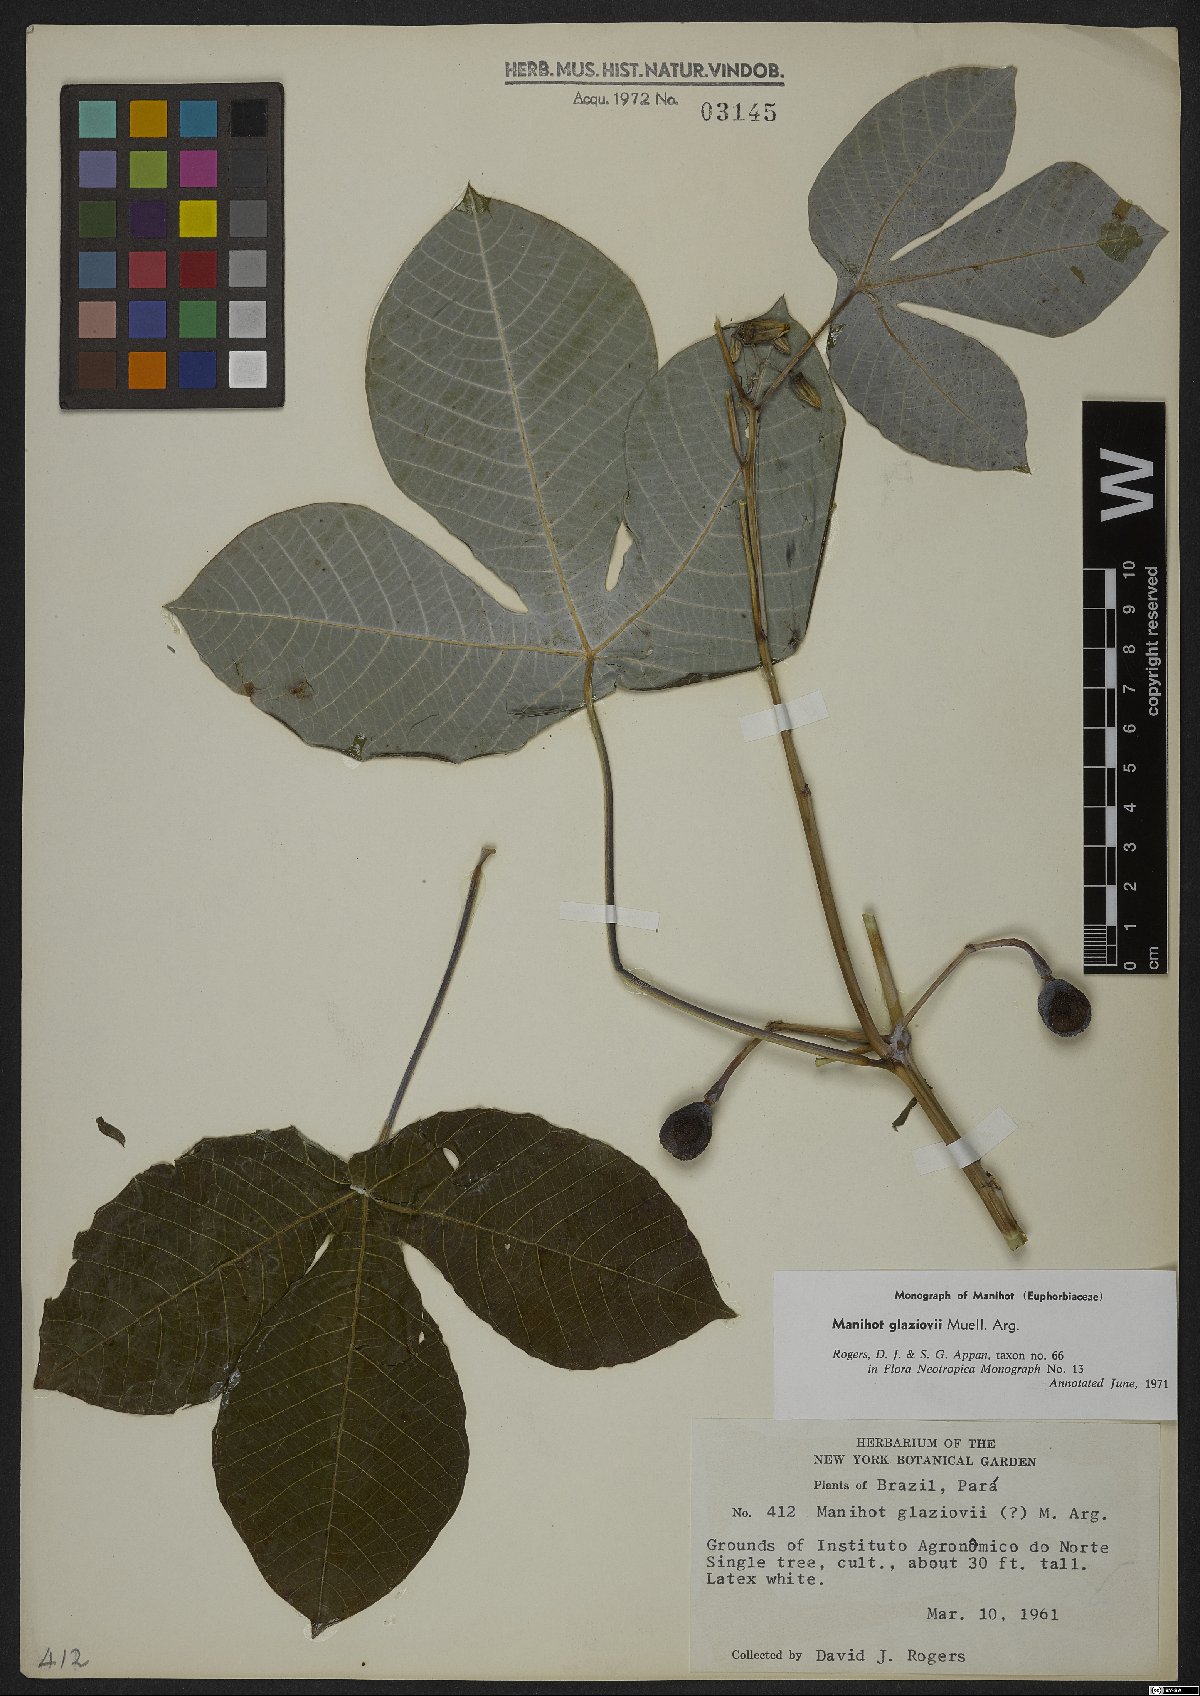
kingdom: Plantae
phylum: Tracheophyta
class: Magnoliopsida
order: Malpighiales
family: Euphorbiaceae
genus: Manihot
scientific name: Manihot carthagenensis
